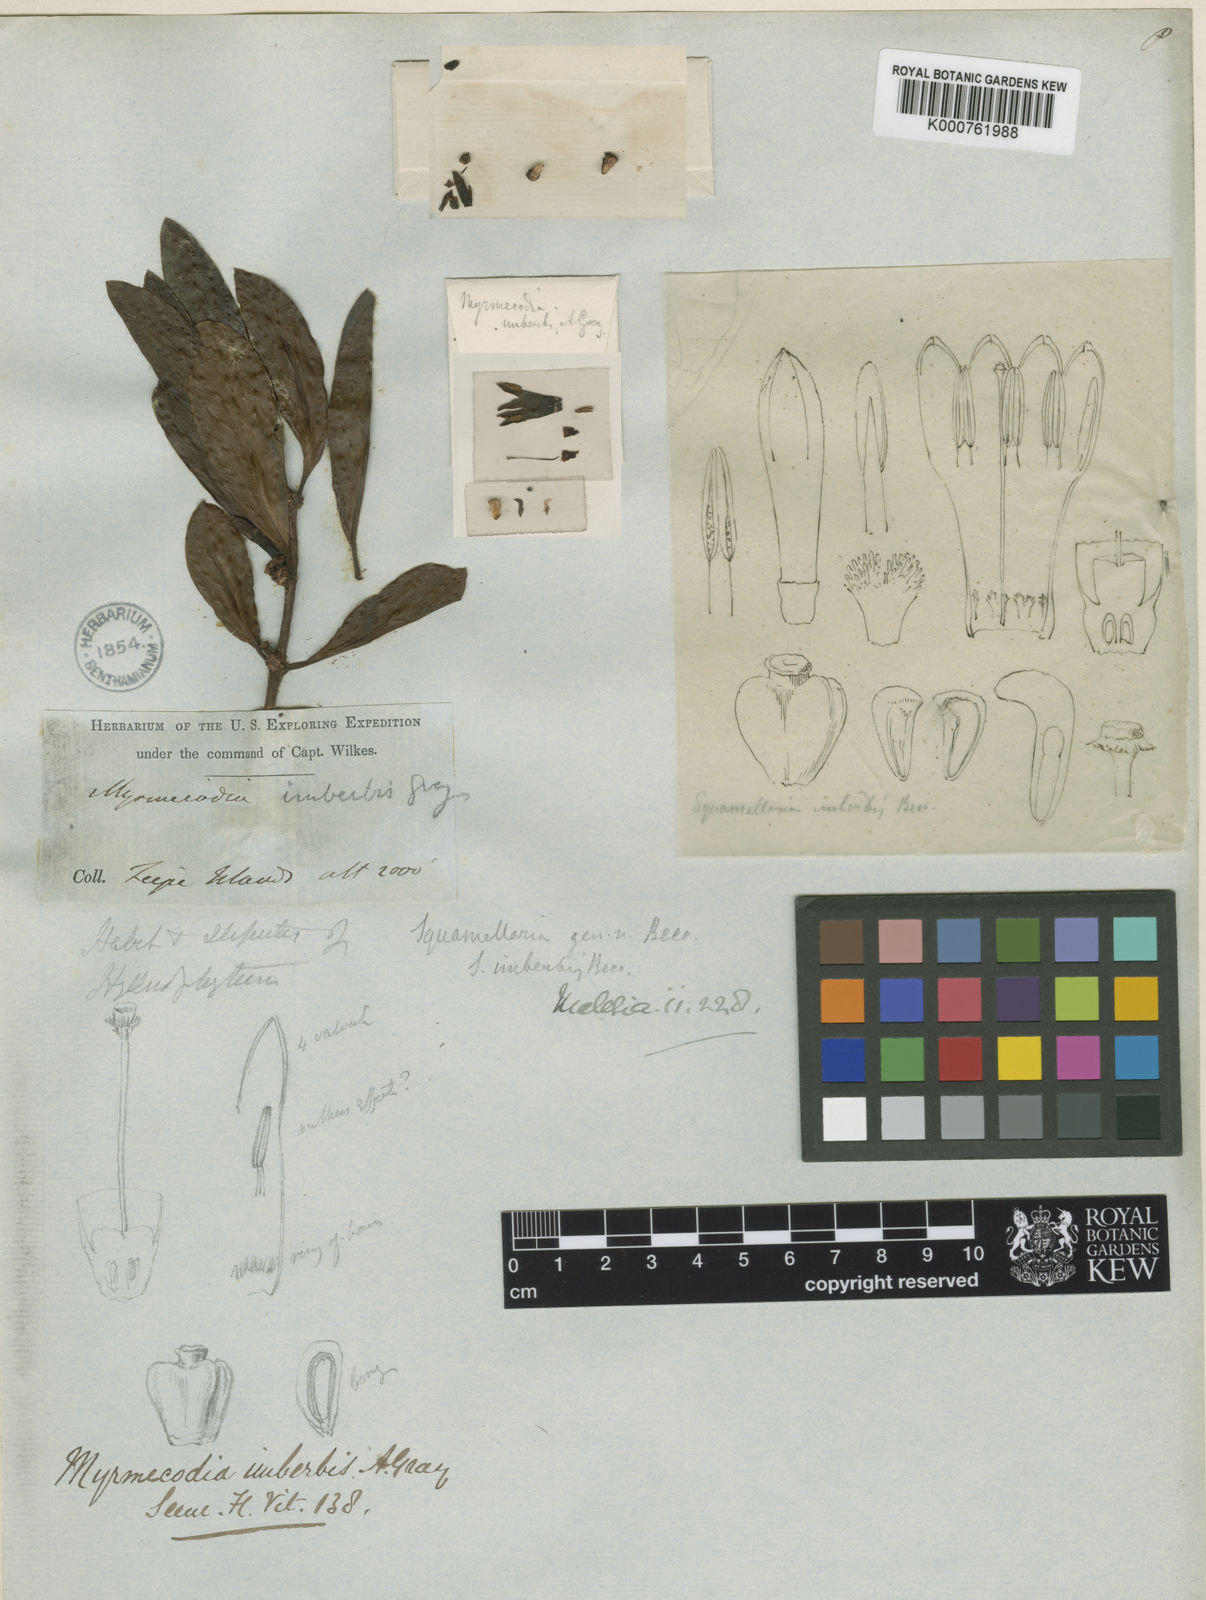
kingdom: Plantae
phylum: Tracheophyta
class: Magnoliopsida
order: Gentianales
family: Rubiaceae
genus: Squamellaria
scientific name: Squamellaria imberbis
